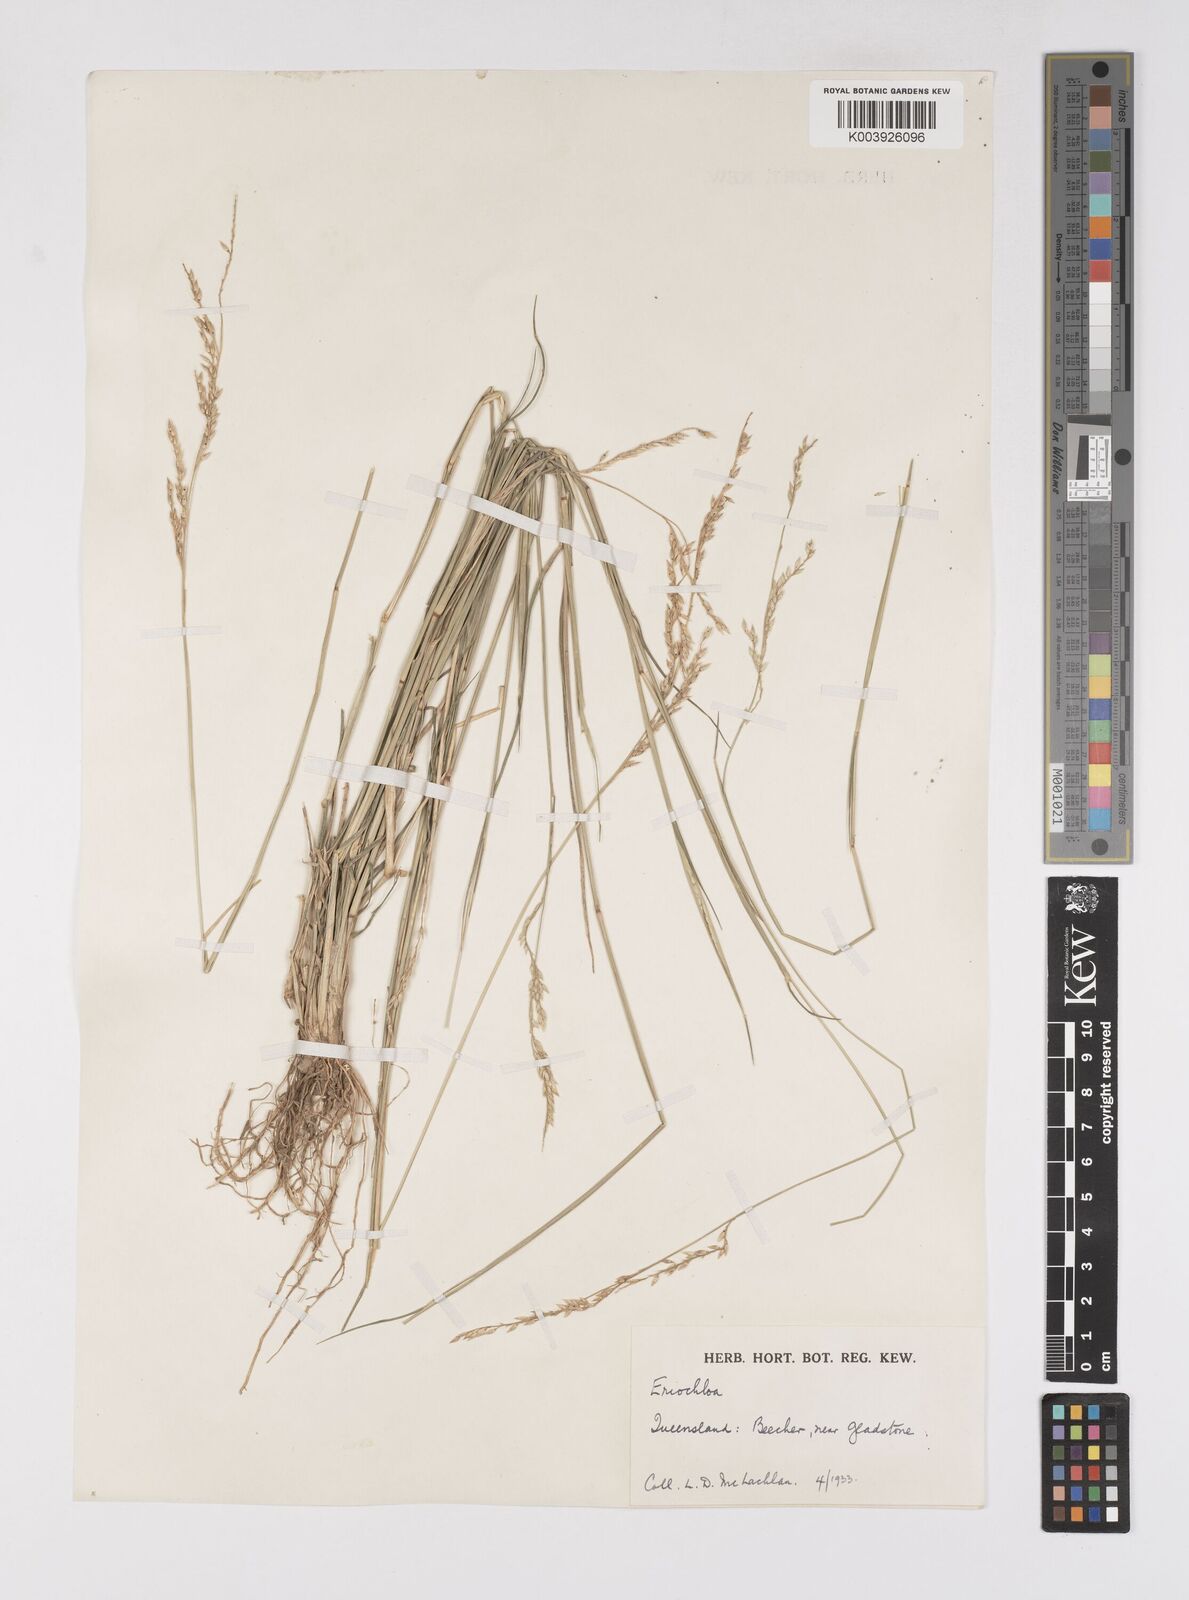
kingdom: Plantae
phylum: Tracheophyta
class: Liliopsida
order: Poales
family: Poaceae
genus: Eriochloa
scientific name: Eriochloa
